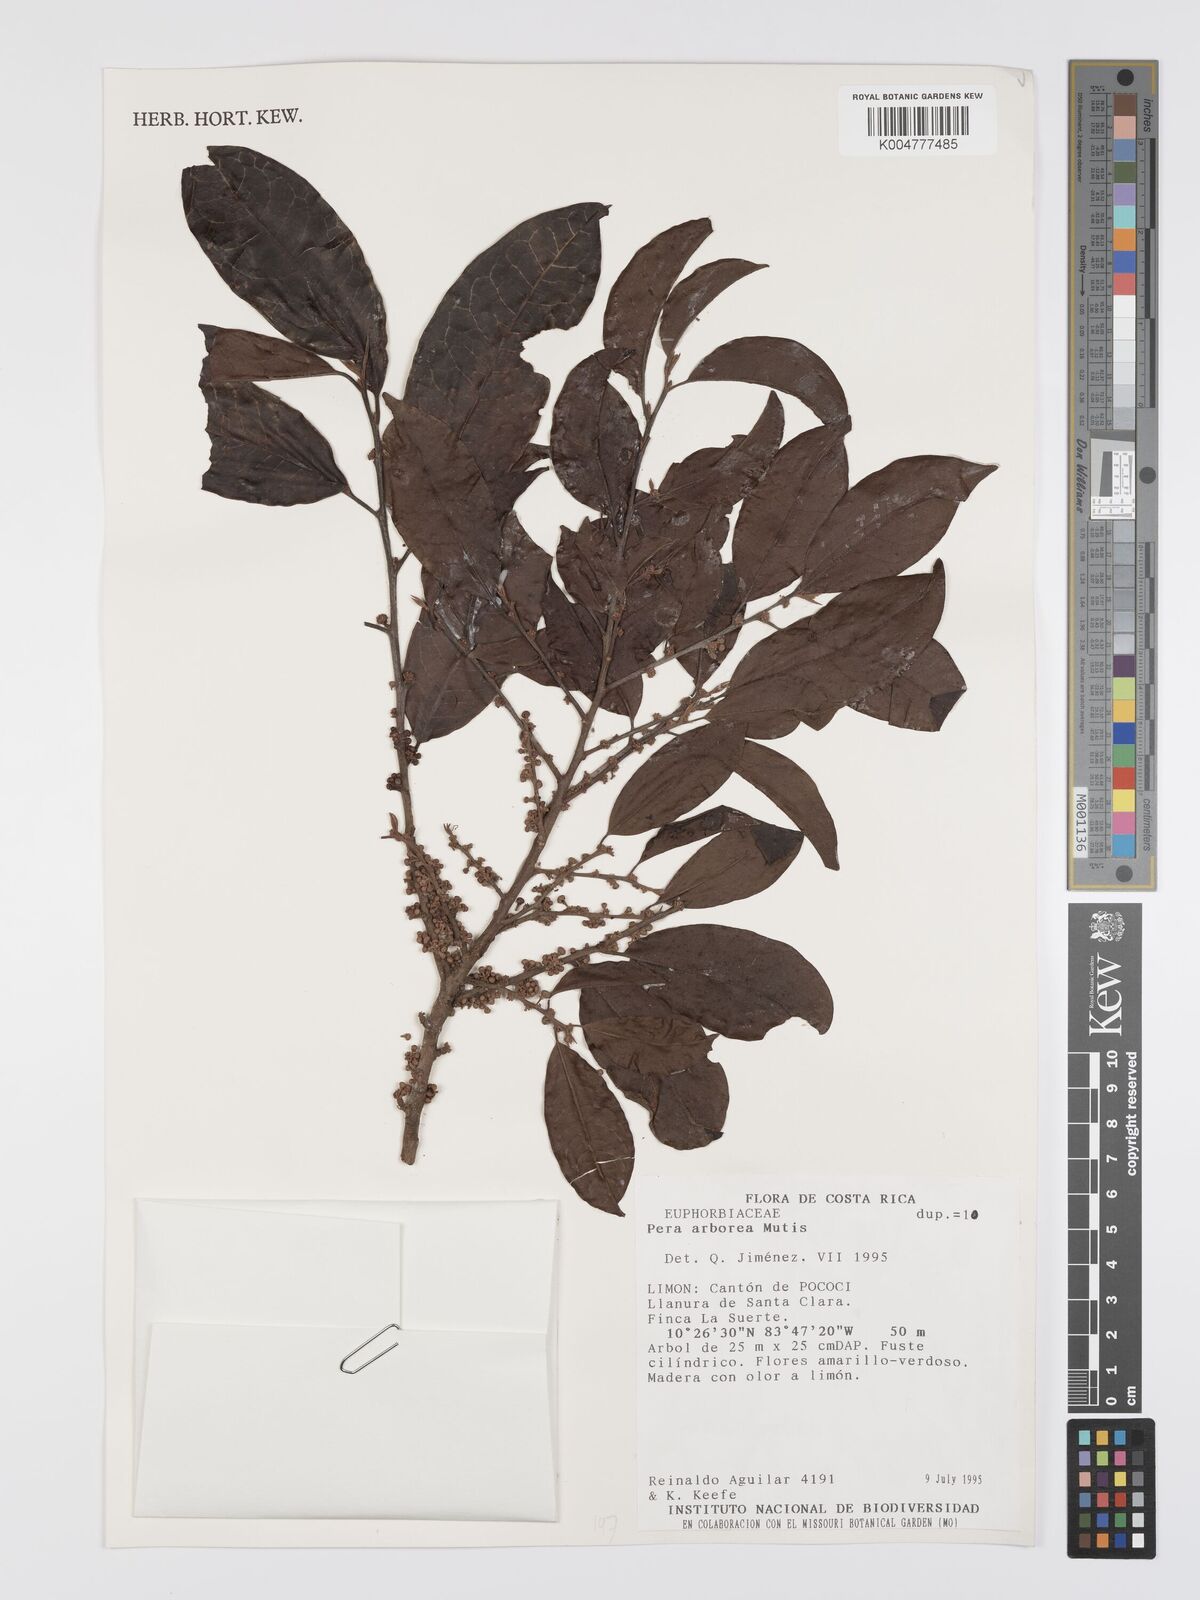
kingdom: Plantae
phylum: Tracheophyta
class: Magnoliopsida
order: Malpighiales
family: Peraceae
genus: Pera
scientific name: Pera
